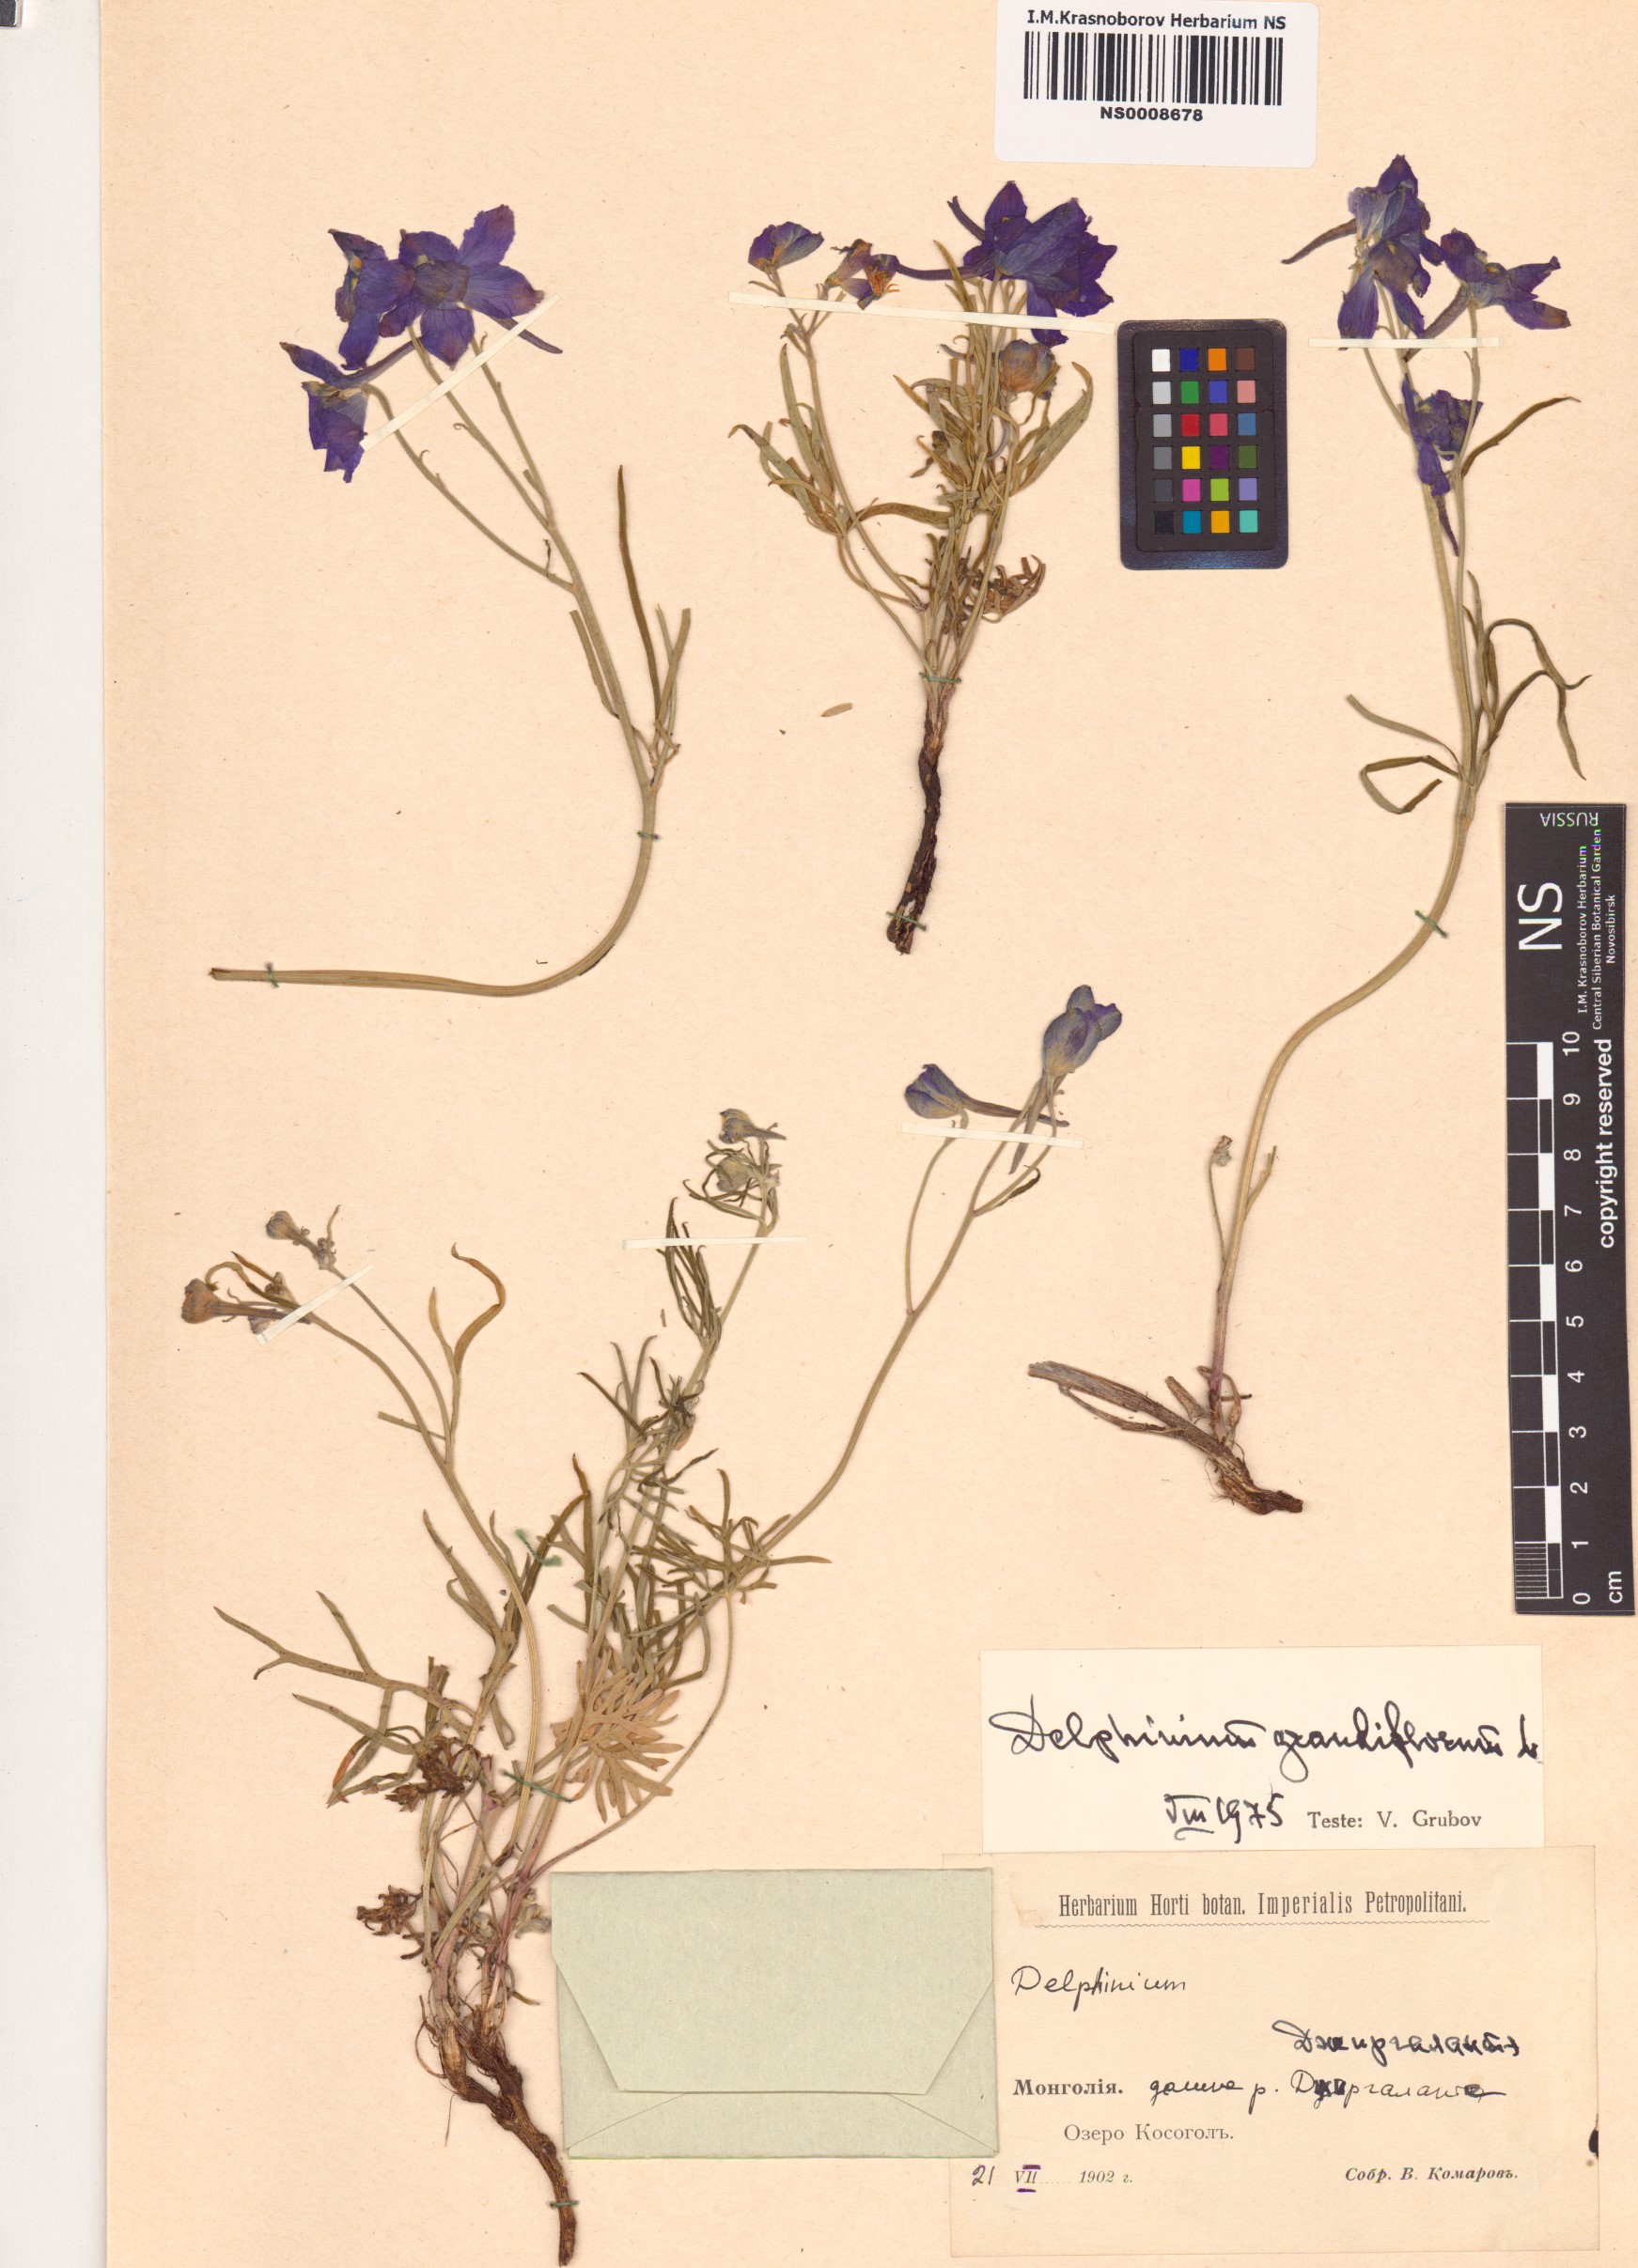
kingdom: Plantae
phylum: Tracheophyta
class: Magnoliopsida
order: Ranunculales
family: Ranunculaceae
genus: Delphinium
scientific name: Delphinium grandiflorum
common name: Siberian larkspur
